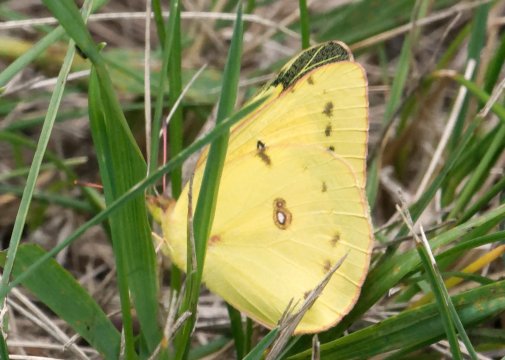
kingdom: Animalia
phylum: Arthropoda
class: Insecta
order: Lepidoptera
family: Pieridae
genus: Colias
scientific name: Colias eurytheme
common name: Orange Sulphur
